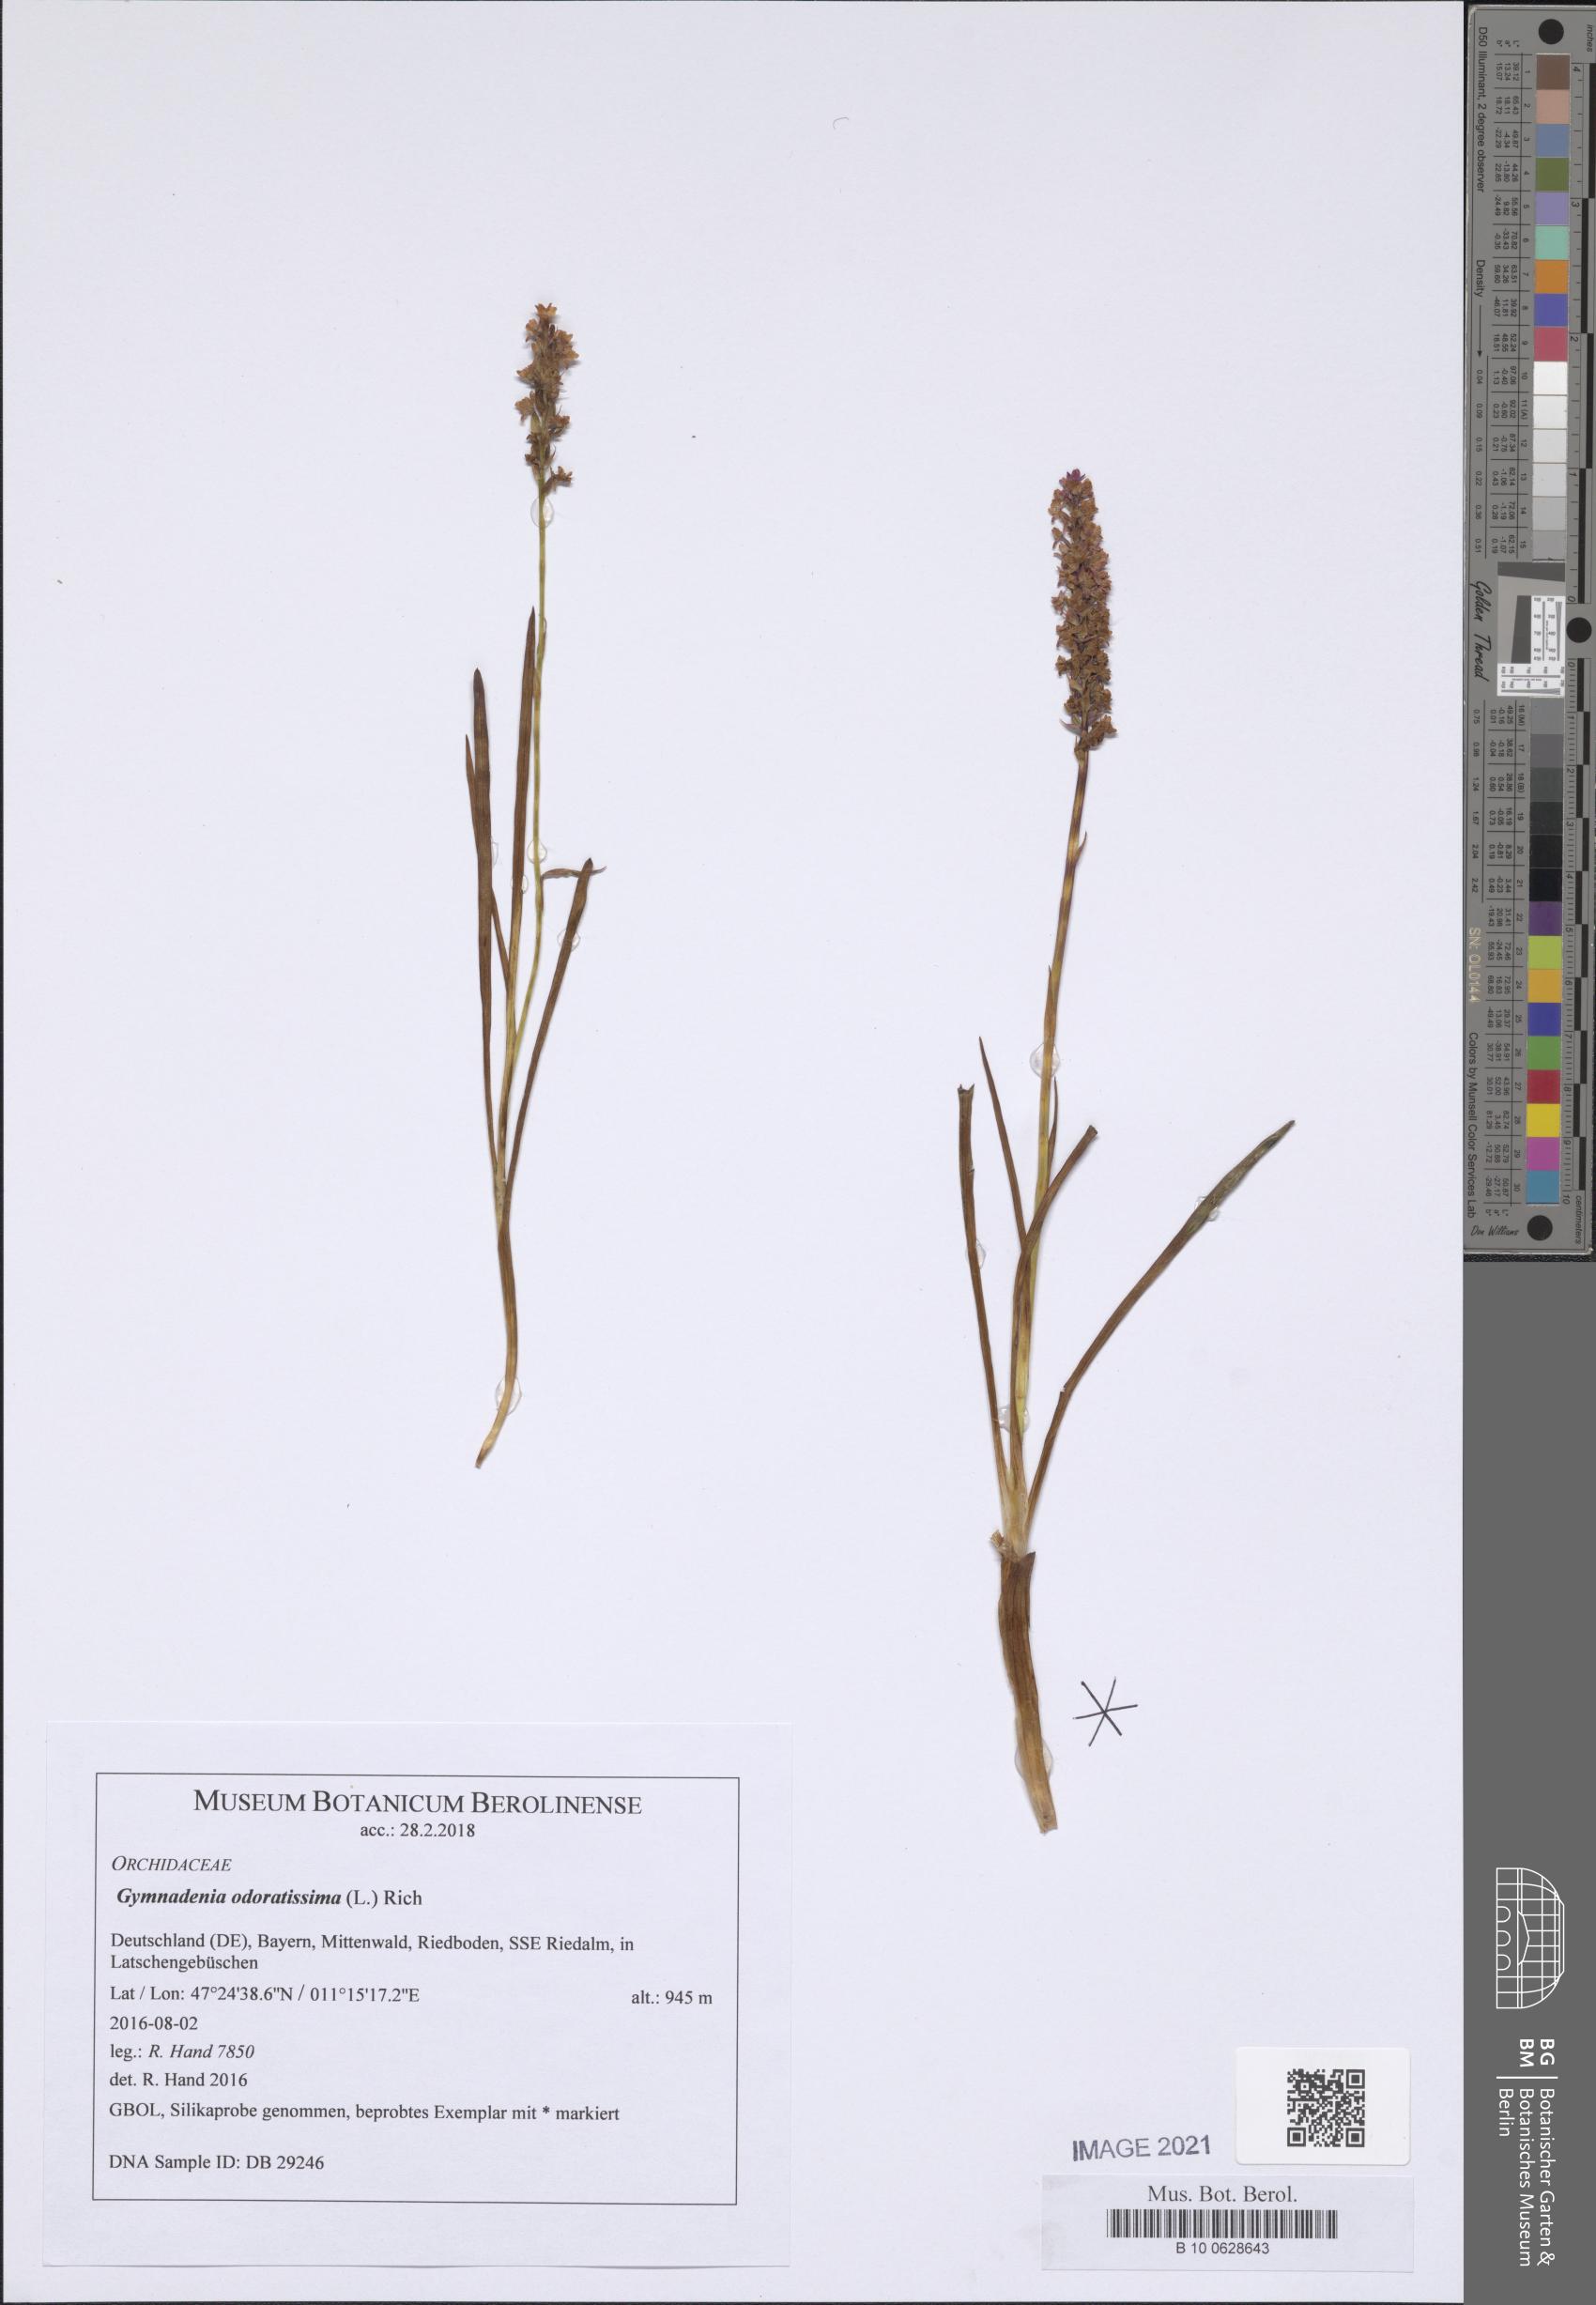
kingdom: Plantae
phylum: Tracheophyta
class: Liliopsida
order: Asparagales
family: Orchidaceae
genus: Gymnadenia
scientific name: Gymnadenia odoratissima
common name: Scented gymnadenia
